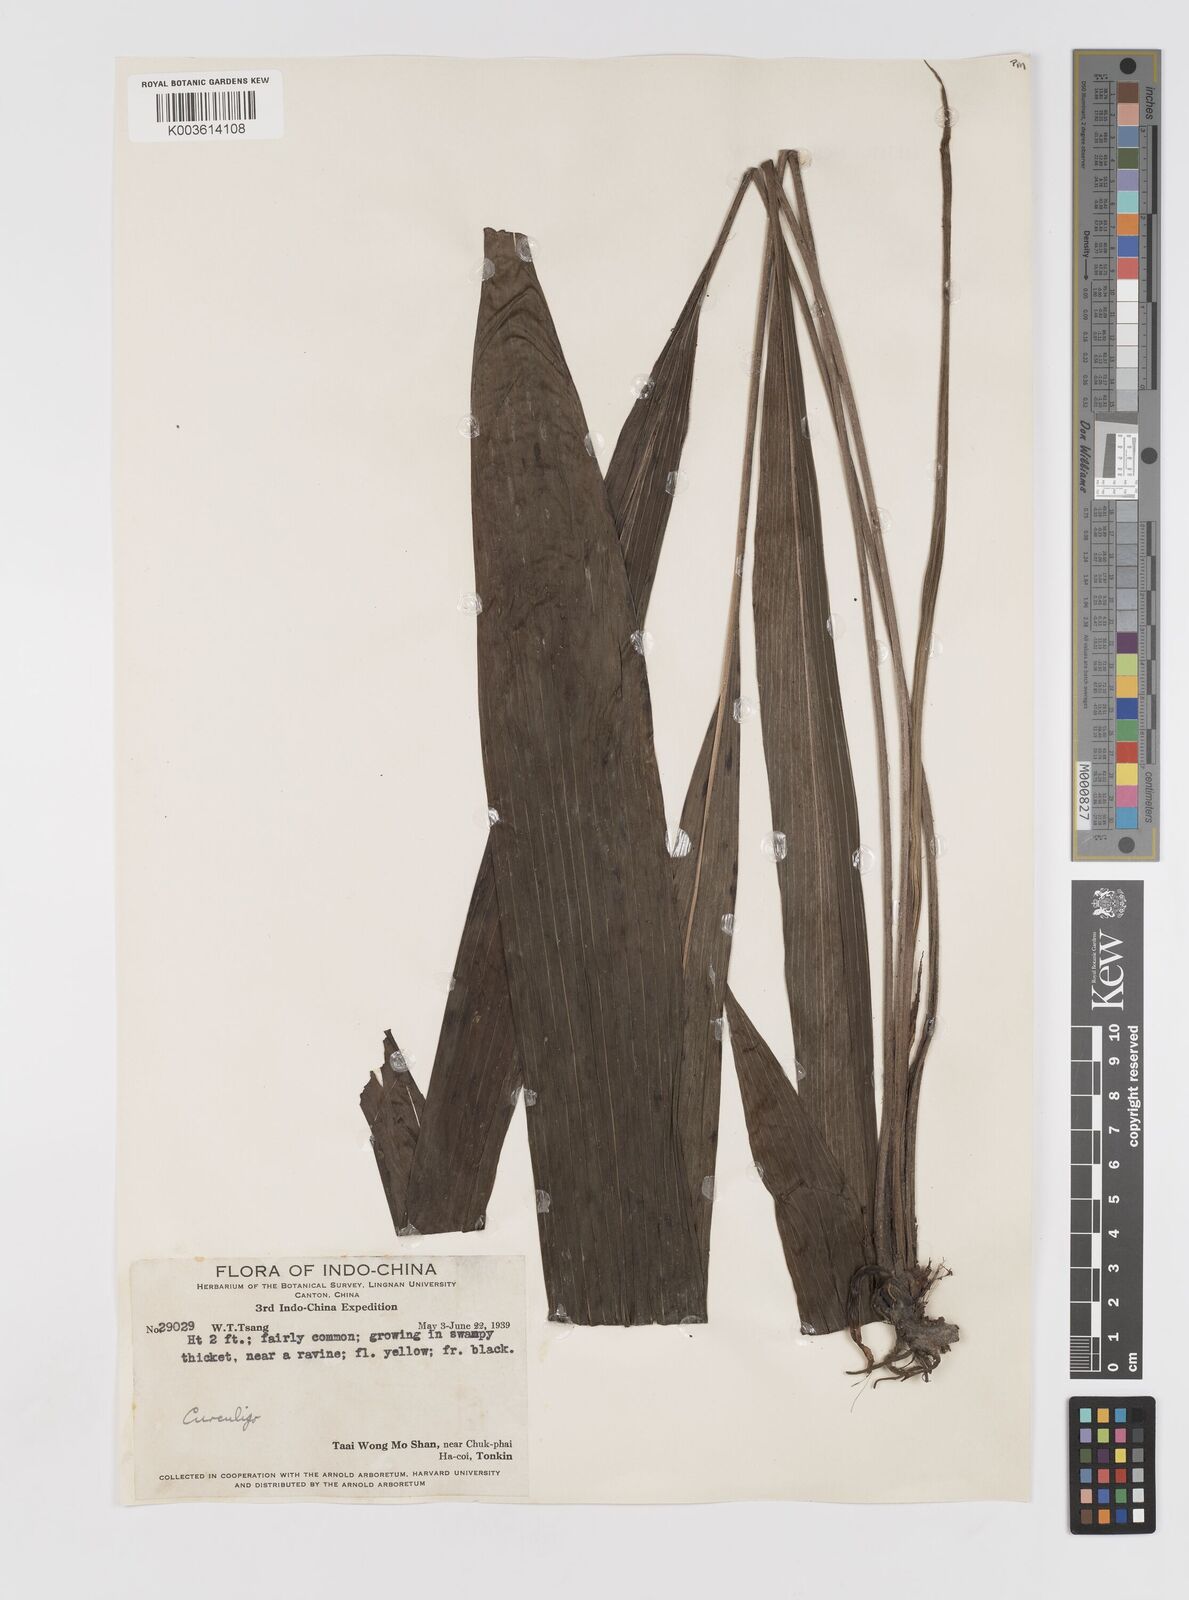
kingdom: Plantae
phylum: Tracheophyta
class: Liliopsida
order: Asparagales
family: Hypoxidaceae
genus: Curculigo
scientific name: Curculigo
